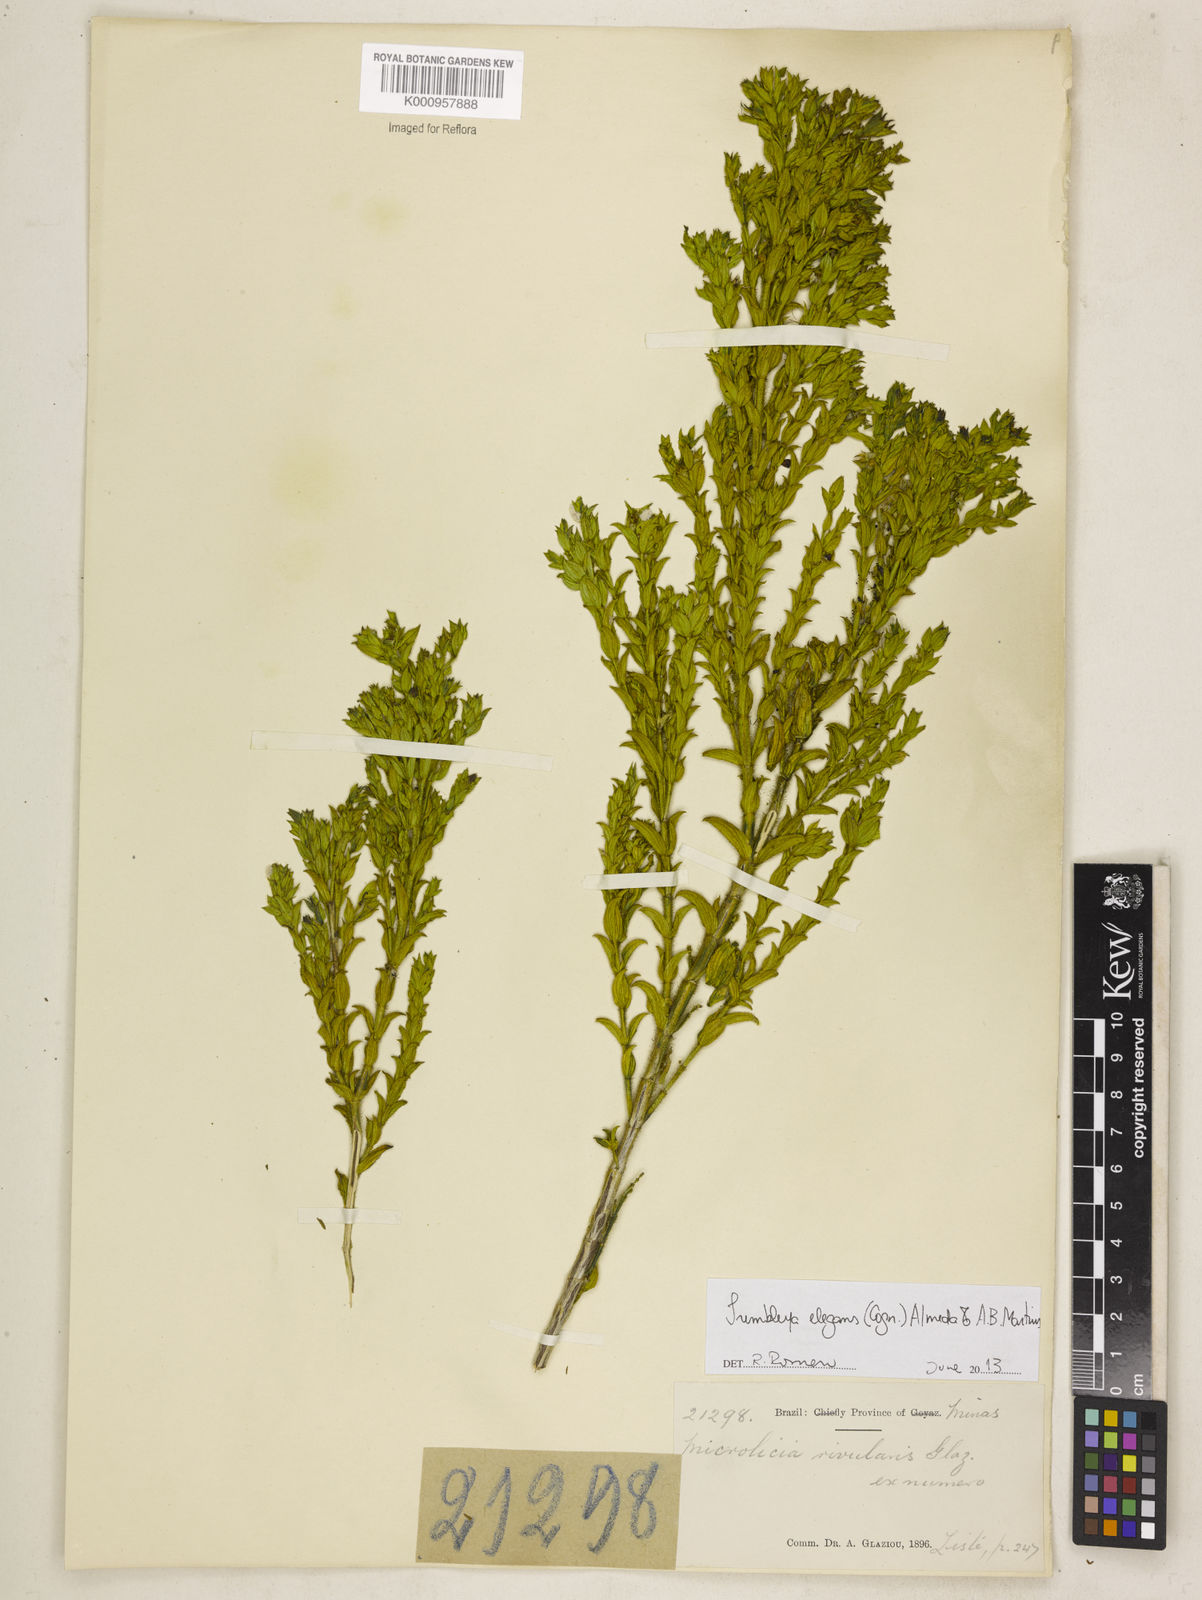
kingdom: Plantae
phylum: Tracheophyta
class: Magnoliopsida
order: Myrtales
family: Melastomataceae
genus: Microlicia
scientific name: Microlicia speciosa
